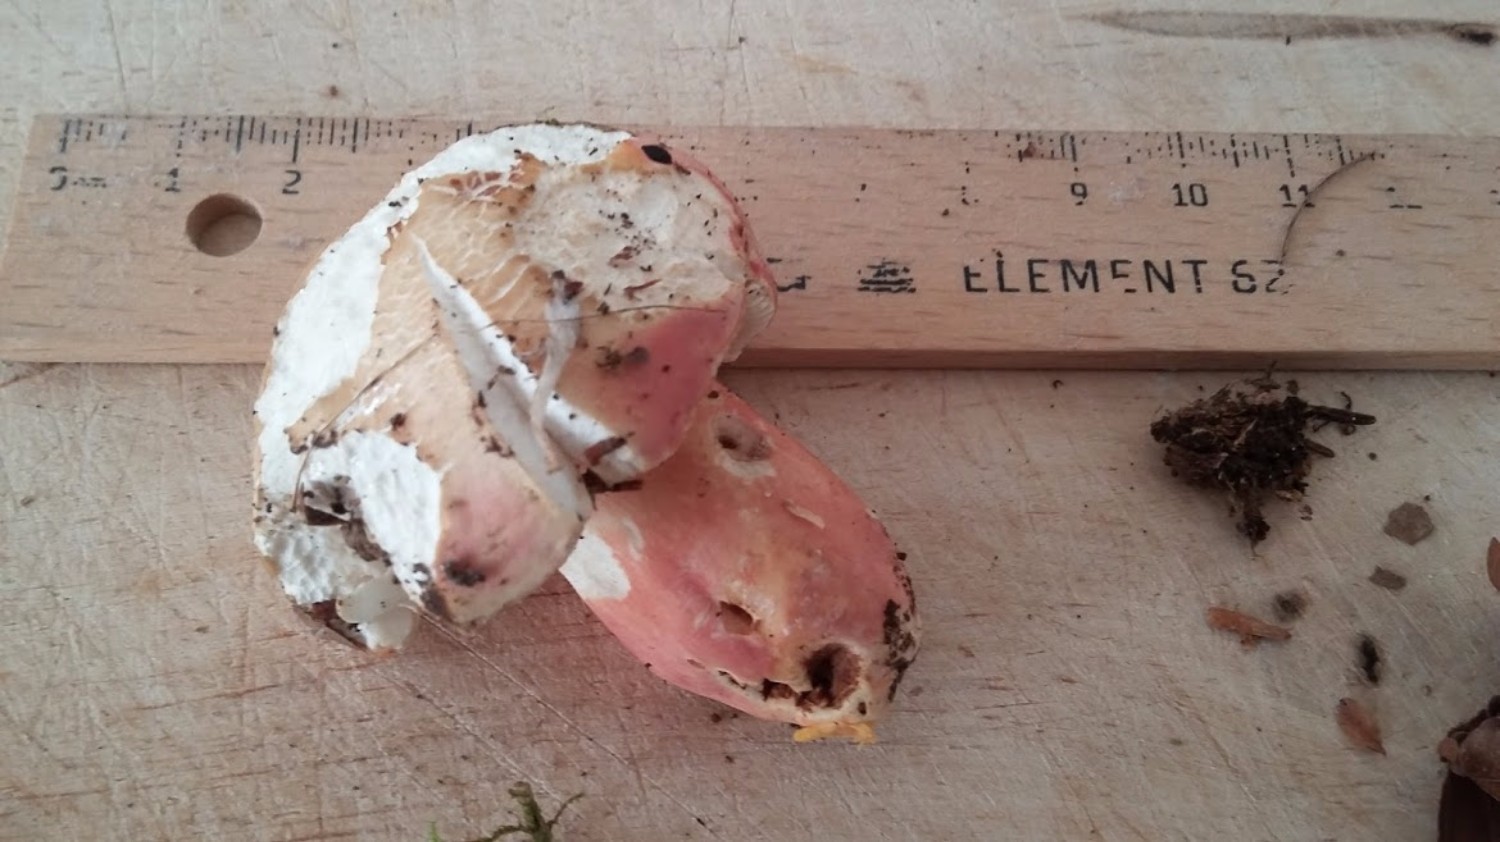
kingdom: Fungi
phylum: Basidiomycota
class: Agaricomycetes
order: Russulales
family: Russulaceae
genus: Russula
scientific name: Russula rosea
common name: fastkødet skørhat
